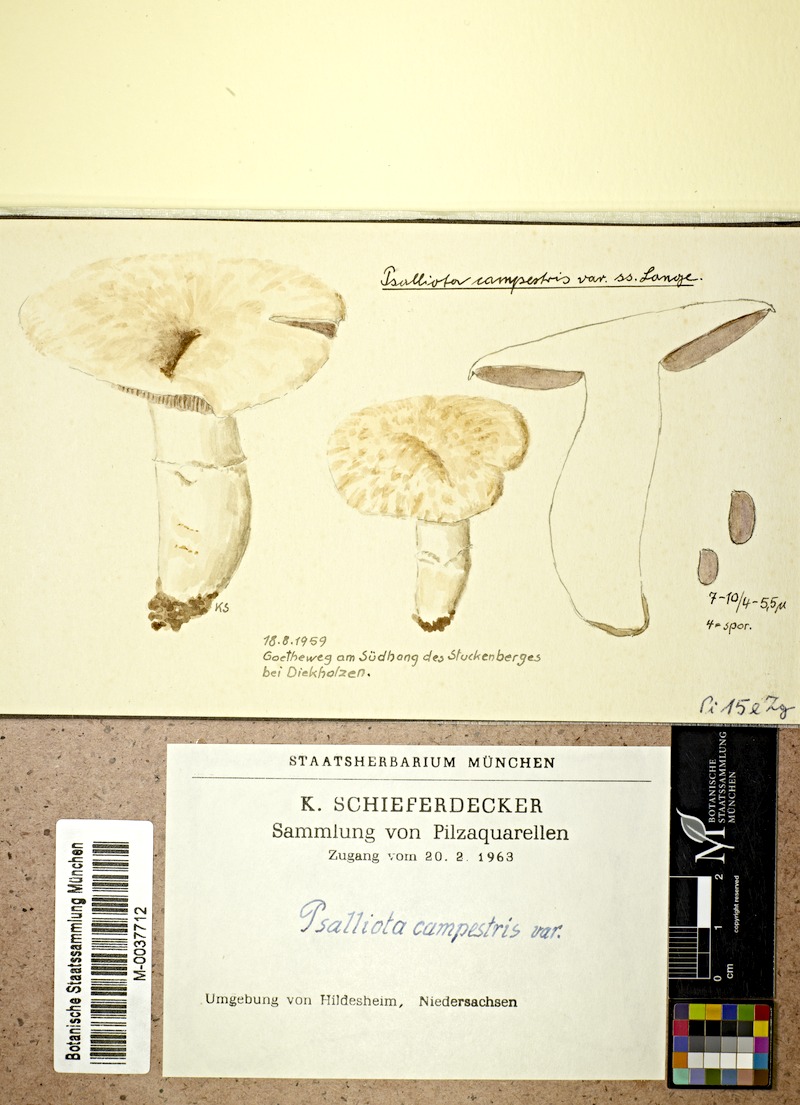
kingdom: Fungi
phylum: Basidiomycota
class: Agaricomycetes
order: Agaricales
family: Agaricaceae
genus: Agaricus
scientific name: Agaricus campestris
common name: Field mushroom
